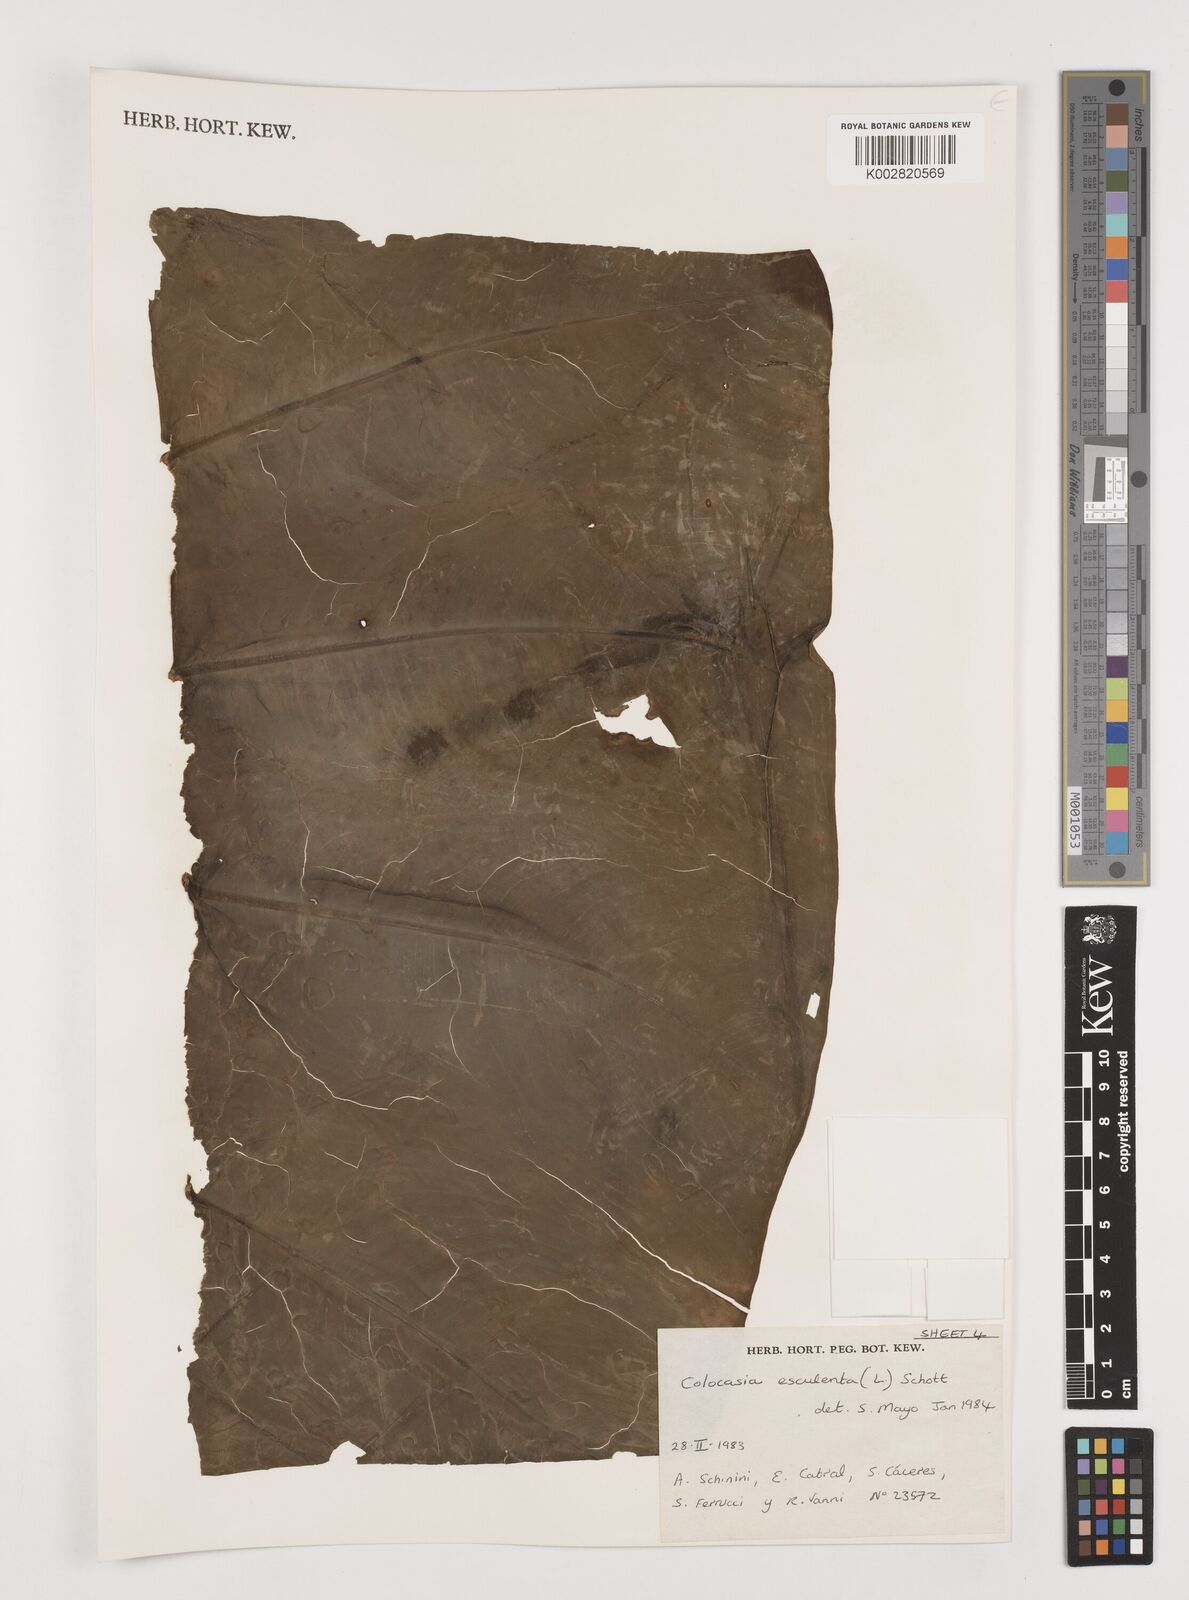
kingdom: Plantae
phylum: Tracheophyta
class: Liliopsida
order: Alismatales
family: Araceae
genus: Colocasia
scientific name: Colocasia esculenta
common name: Taro
